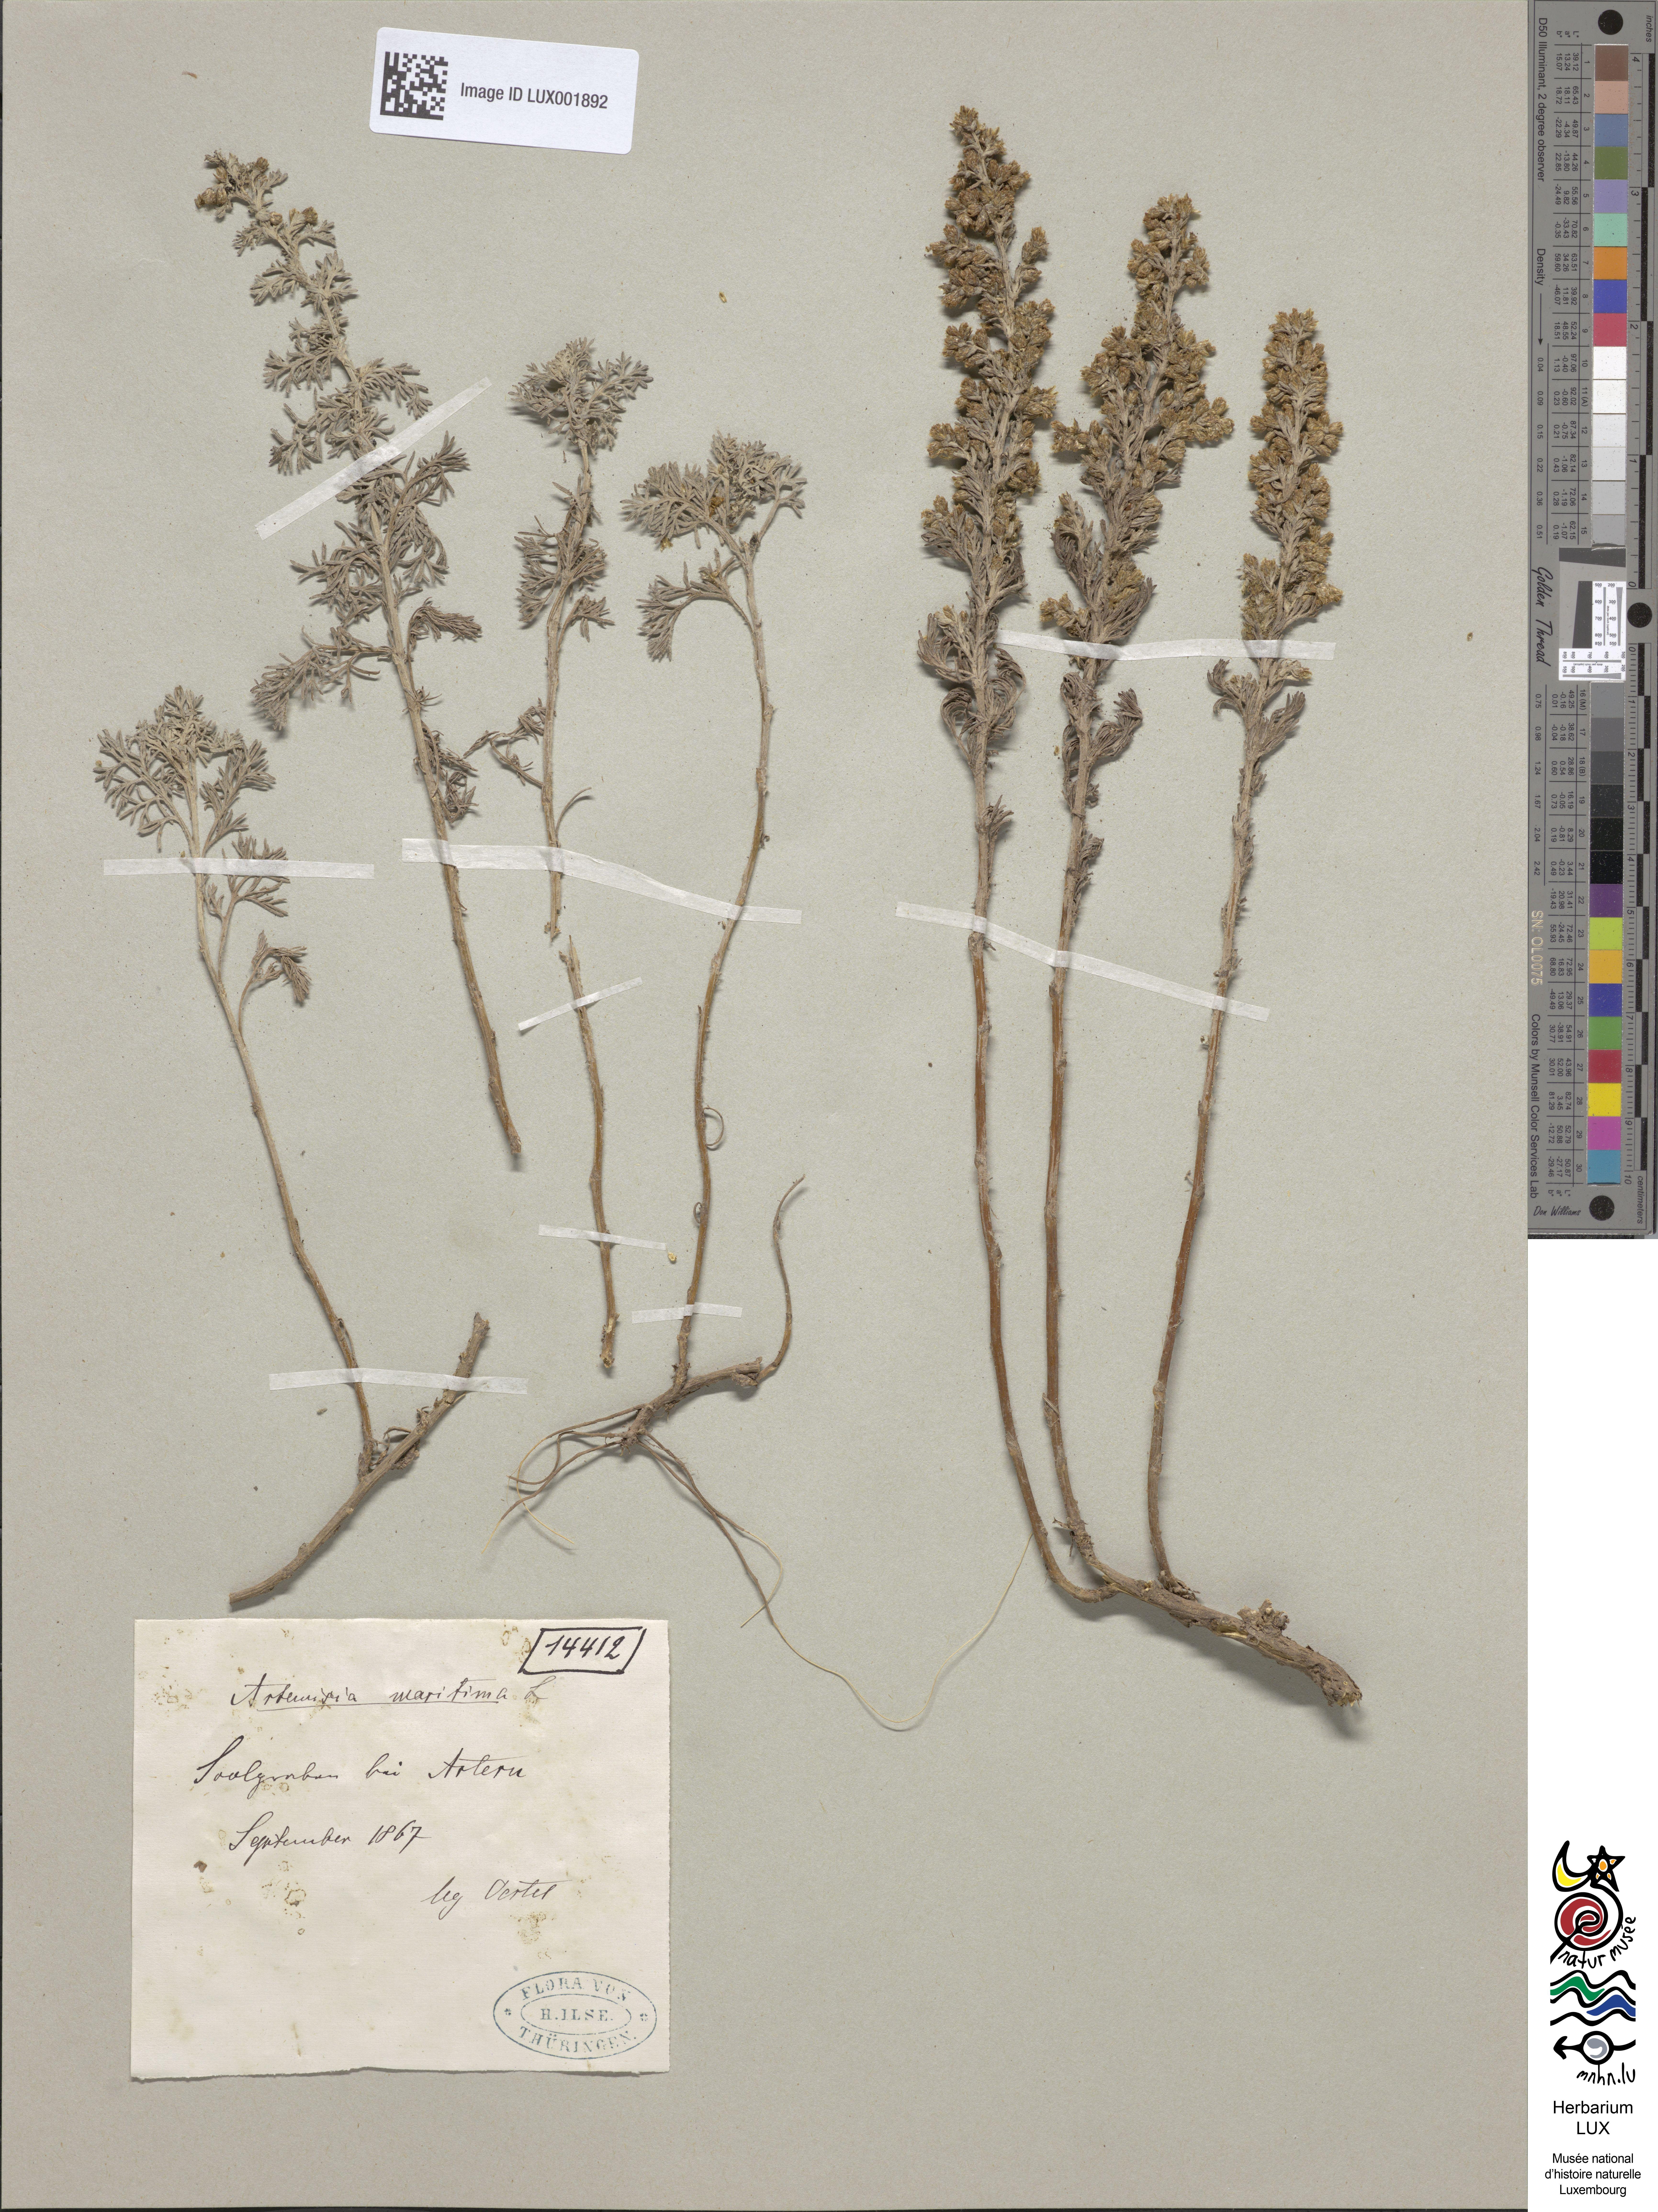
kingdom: Plantae
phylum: Tracheophyta
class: Magnoliopsida
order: Asterales
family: Asteraceae
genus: Artemisia
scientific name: Artemisia maritima
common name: Wormseed
